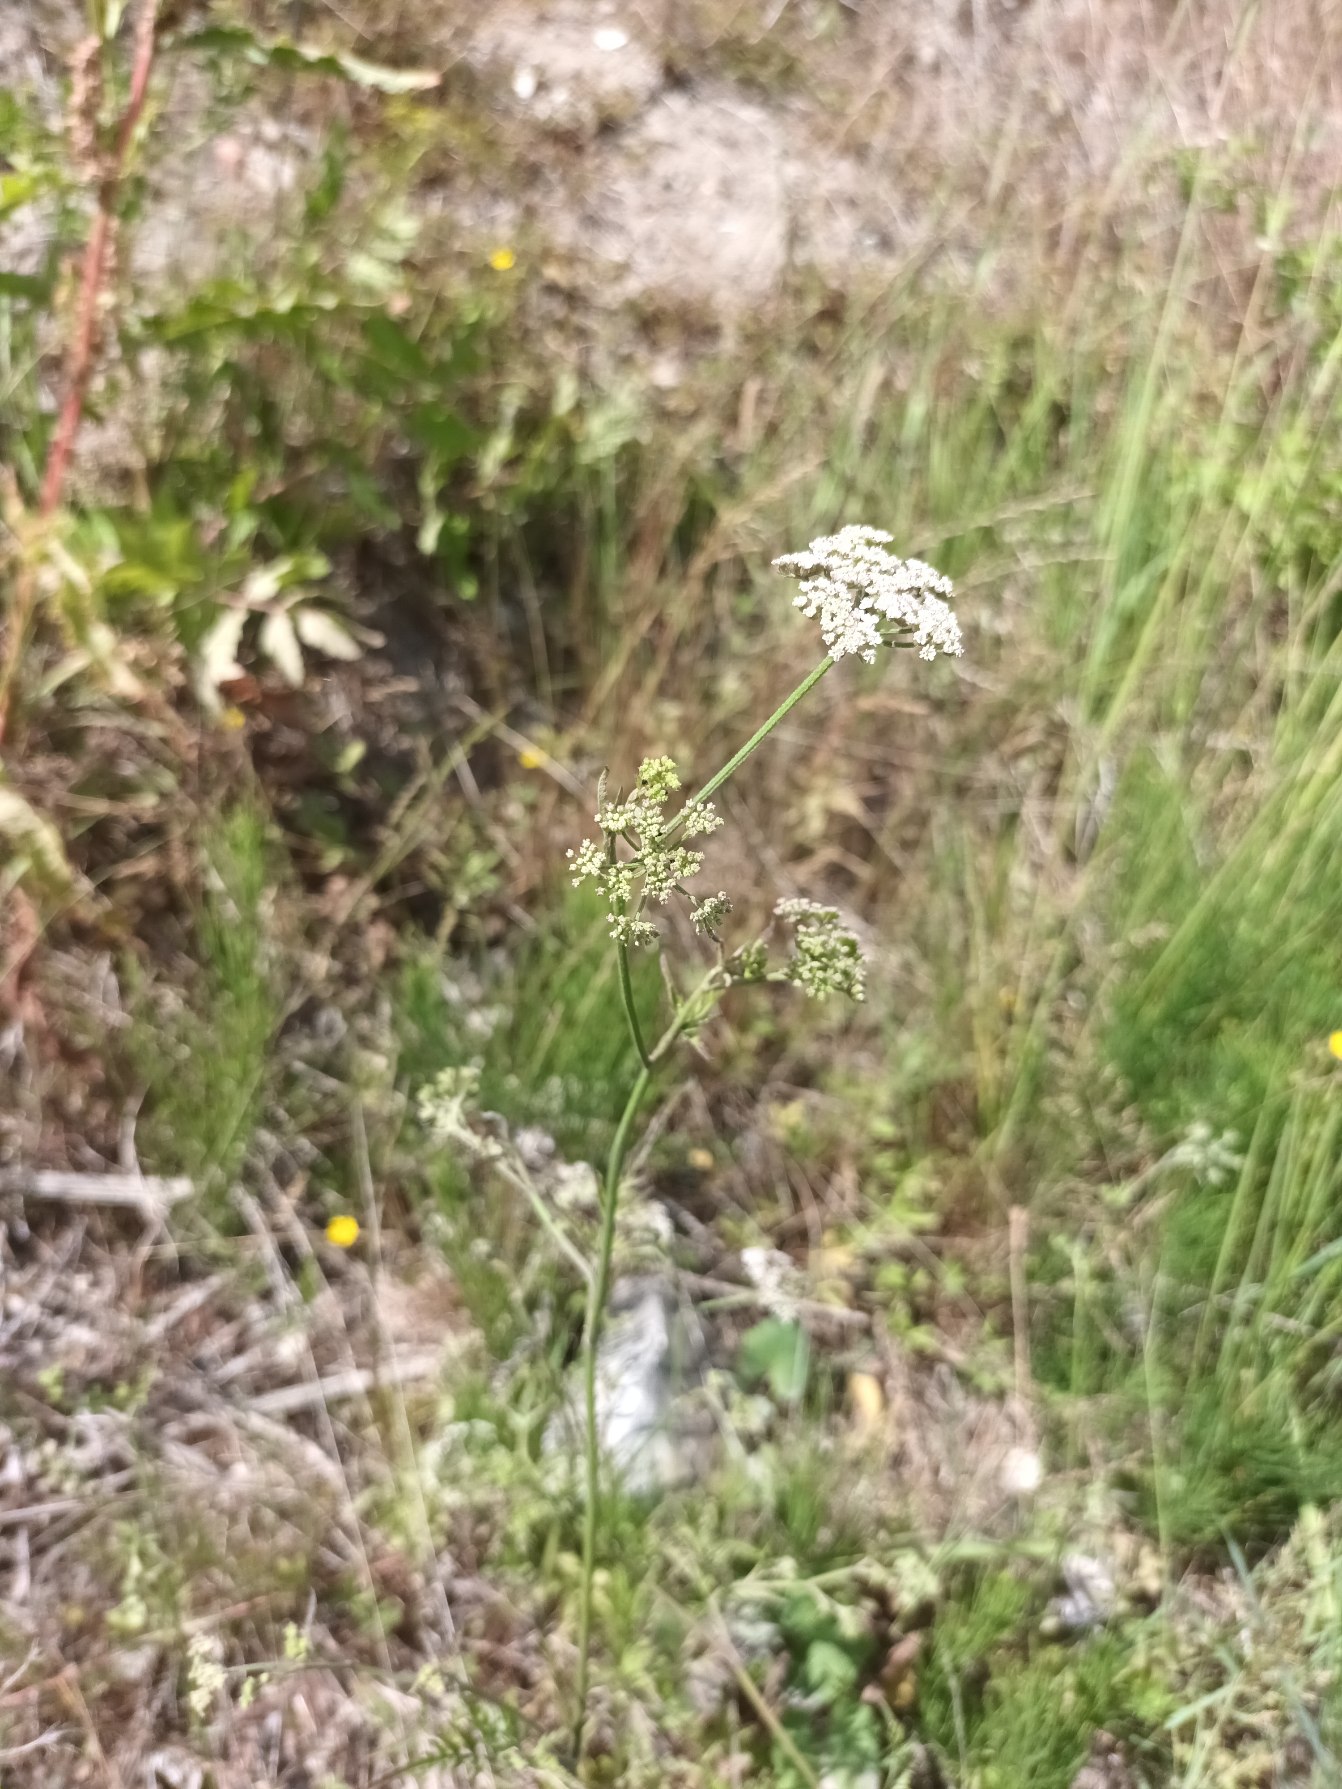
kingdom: Plantae
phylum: Tracheophyta
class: Magnoliopsida
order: Apiales
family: Apiaceae
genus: Torilis
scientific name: Torilis japonica
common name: Hvas randfrø
